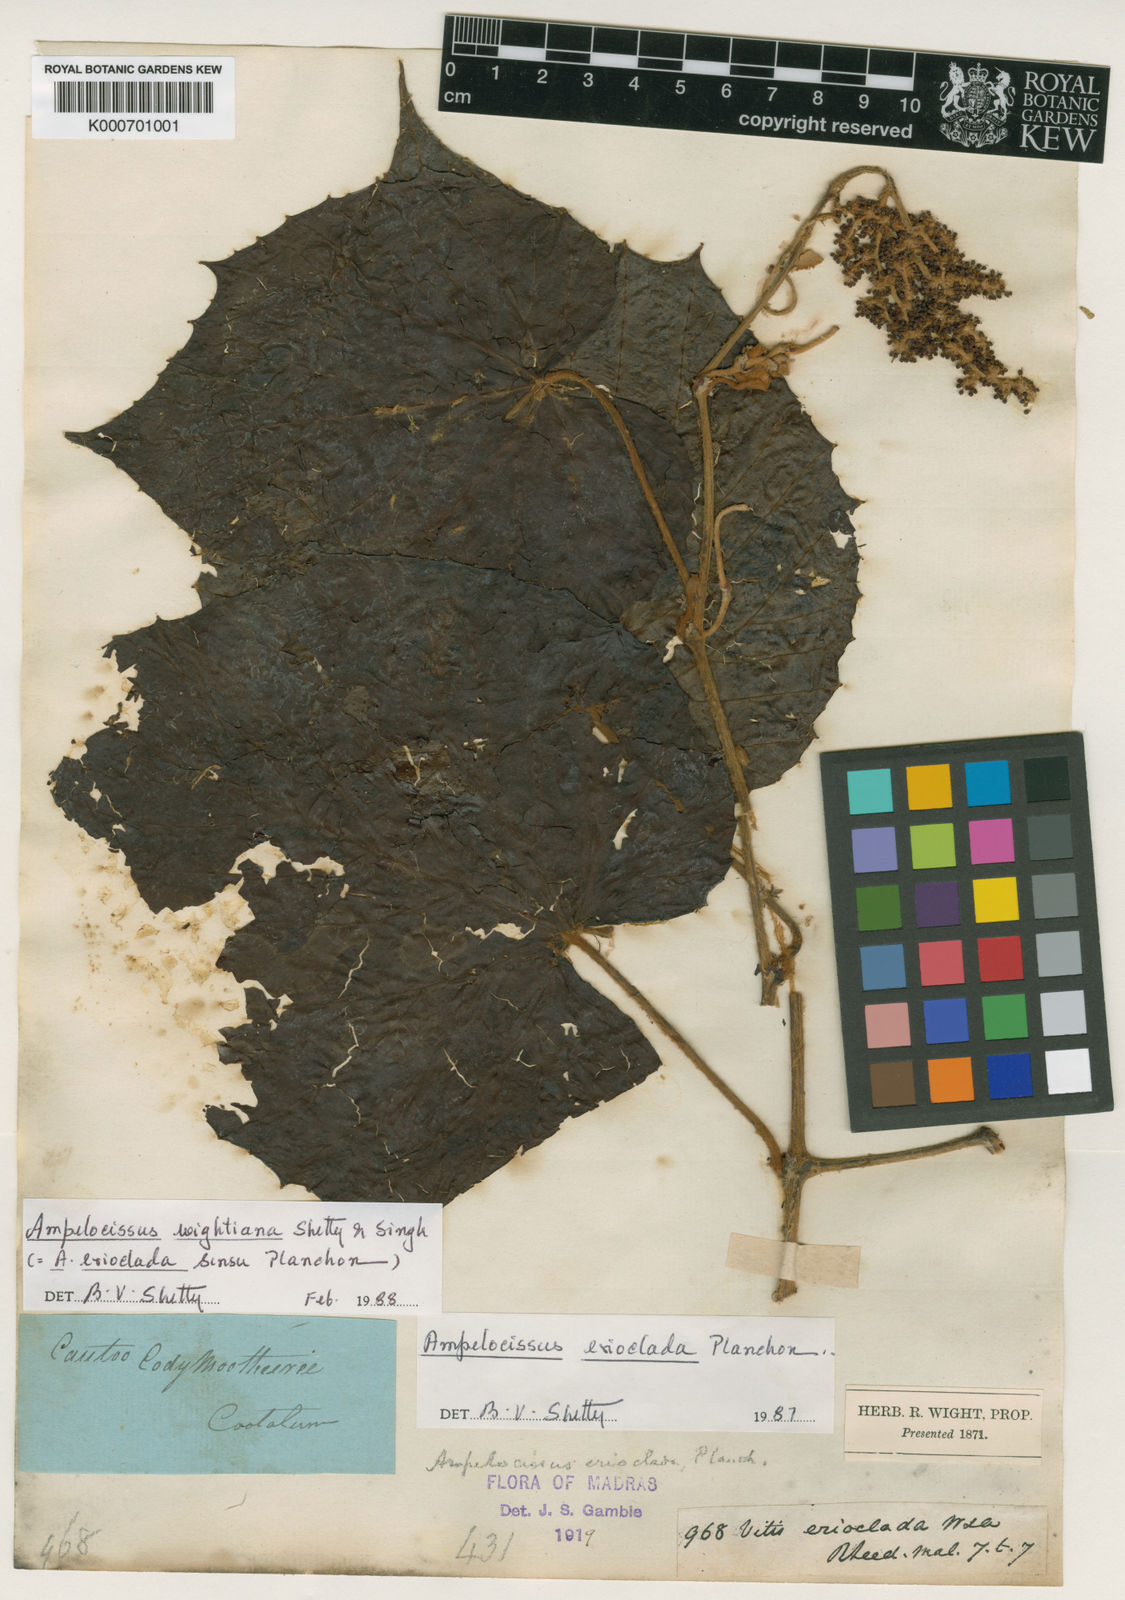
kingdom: Plantae
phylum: Tracheophyta
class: Magnoliopsida
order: Vitales
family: Vitaceae
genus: Ampelocissus
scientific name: Ampelocissus wightiana
